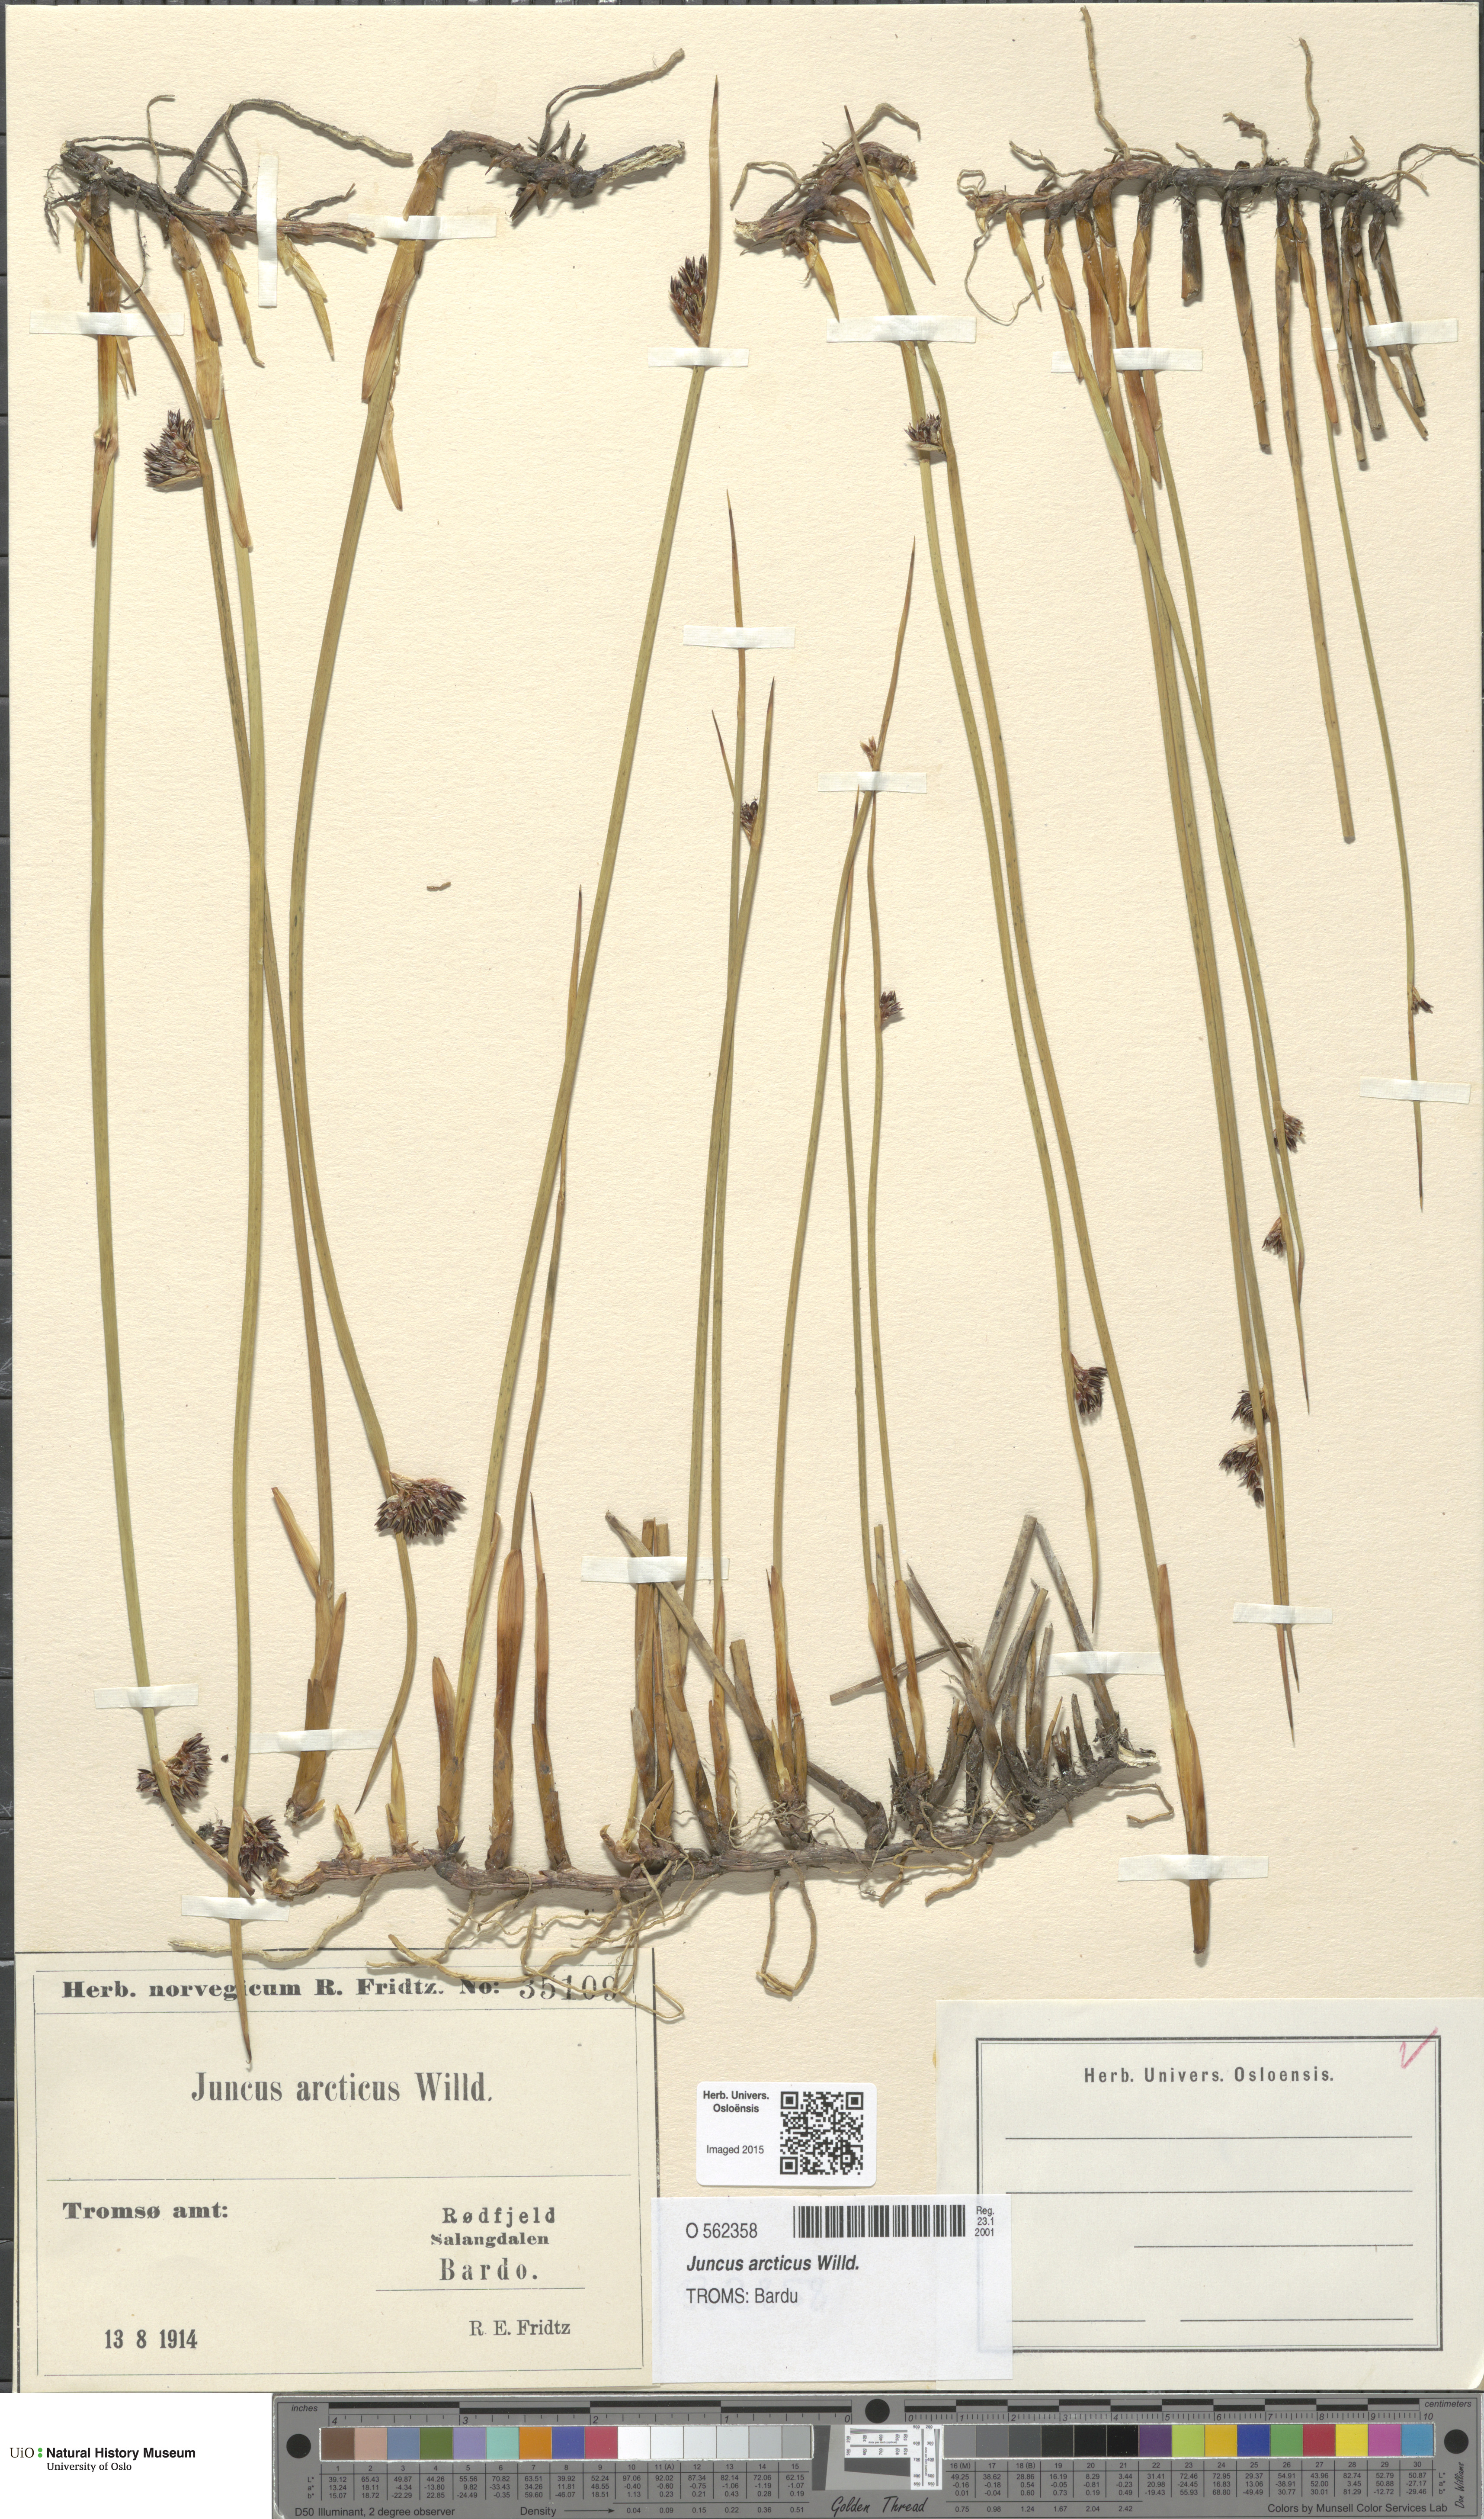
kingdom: Plantae
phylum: Tracheophyta
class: Liliopsida
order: Poales
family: Juncaceae
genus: Juncus
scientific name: Juncus arcticus
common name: Arctic rush
